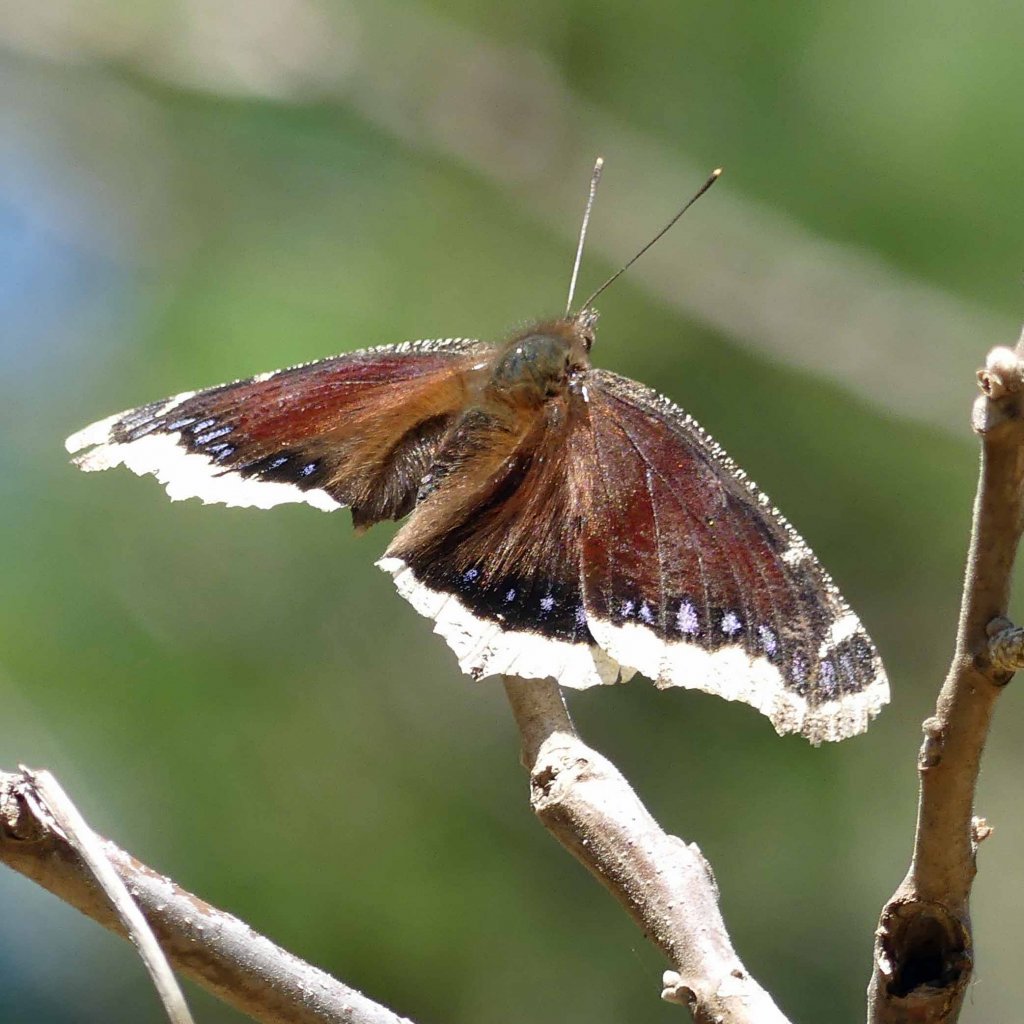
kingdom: Animalia
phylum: Arthropoda
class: Insecta
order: Lepidoptera
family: Nymphalidae
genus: Nymphalis
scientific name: Nymphalis antiopa
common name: Mourning Cloak
